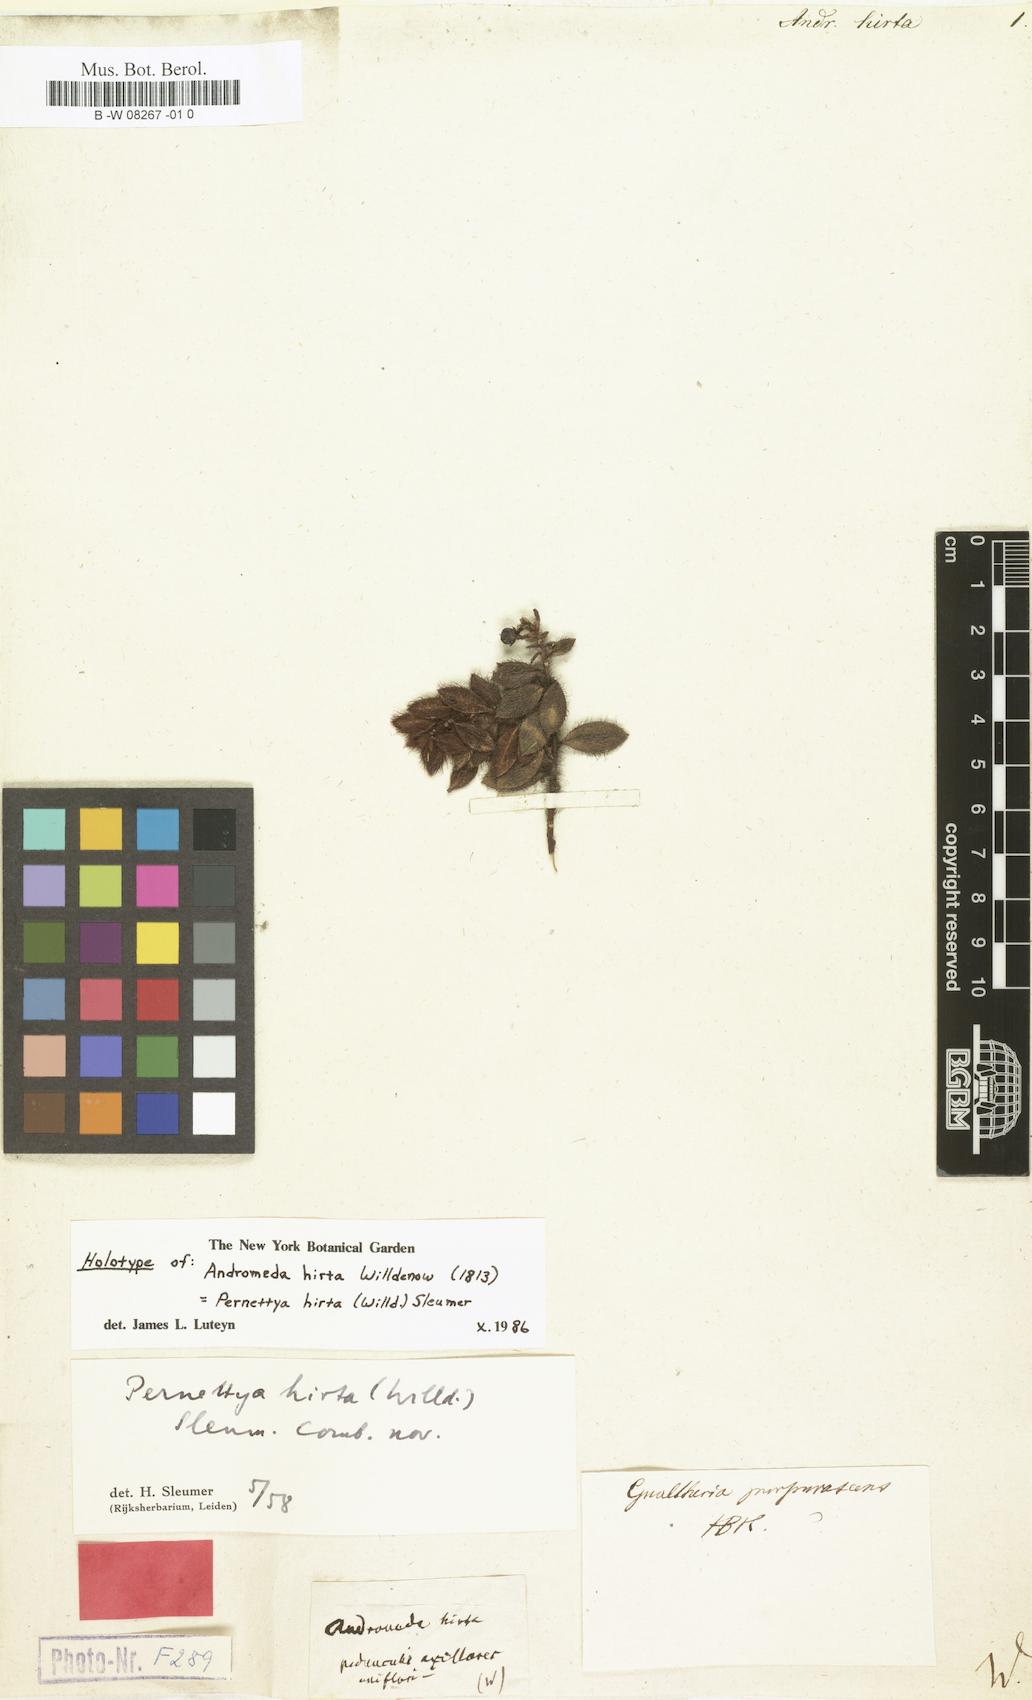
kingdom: Plantae
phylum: Tracheophyta
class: Magnoliopsida
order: Ericales
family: Ericaceae
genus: Gaultheria
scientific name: Gaultheria purpurascens
